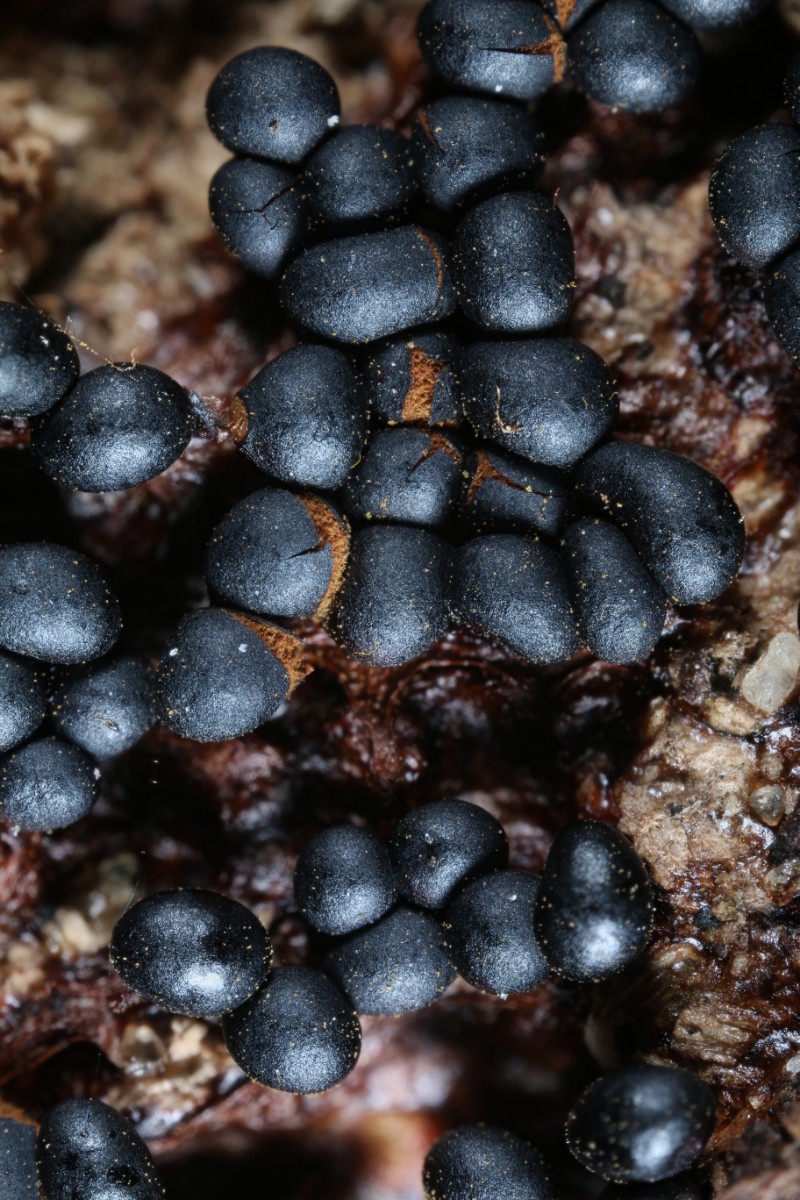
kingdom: Protozoa
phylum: Mycetozoa
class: Myxomycetes
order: Trichiales
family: Trichiaceae
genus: Metatrichia
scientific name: Metatrichia floriformis
